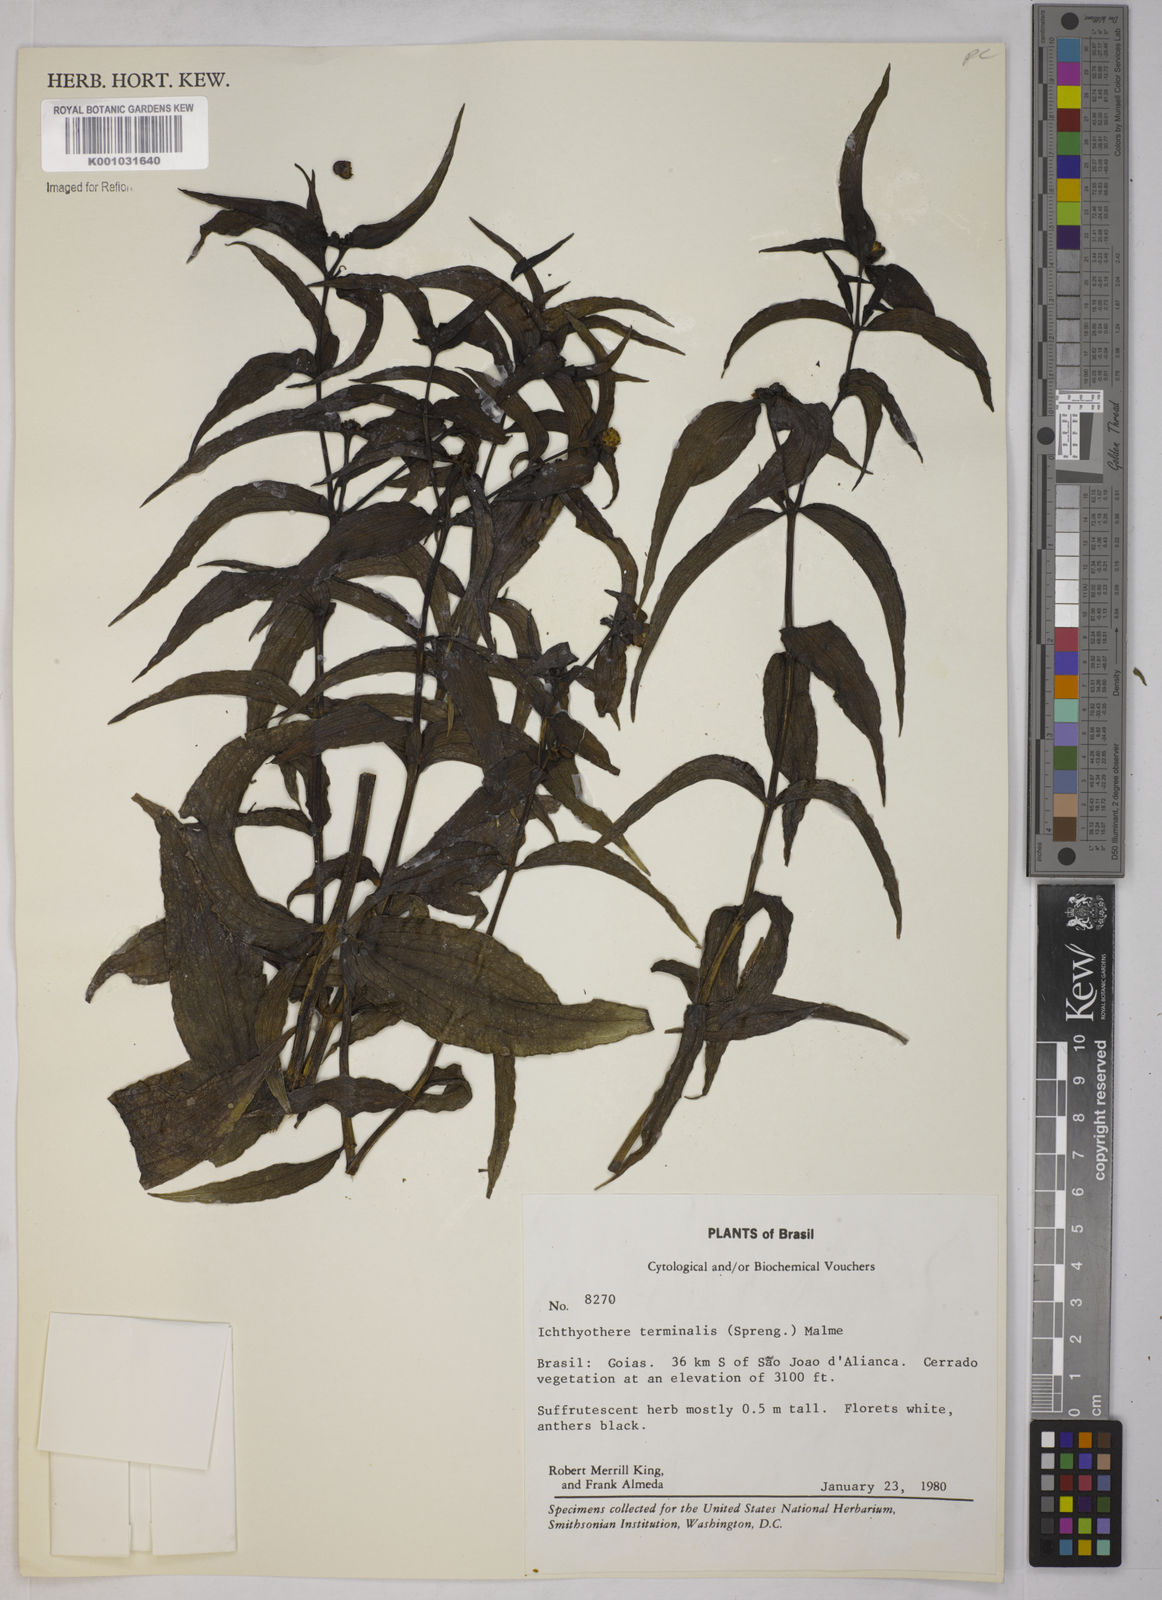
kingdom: Plantae
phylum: Tracheophyta
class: Magnoliopsida
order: Asterales
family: Asteraceae
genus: Ichthyothere
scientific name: Ichthyothere terminalis
